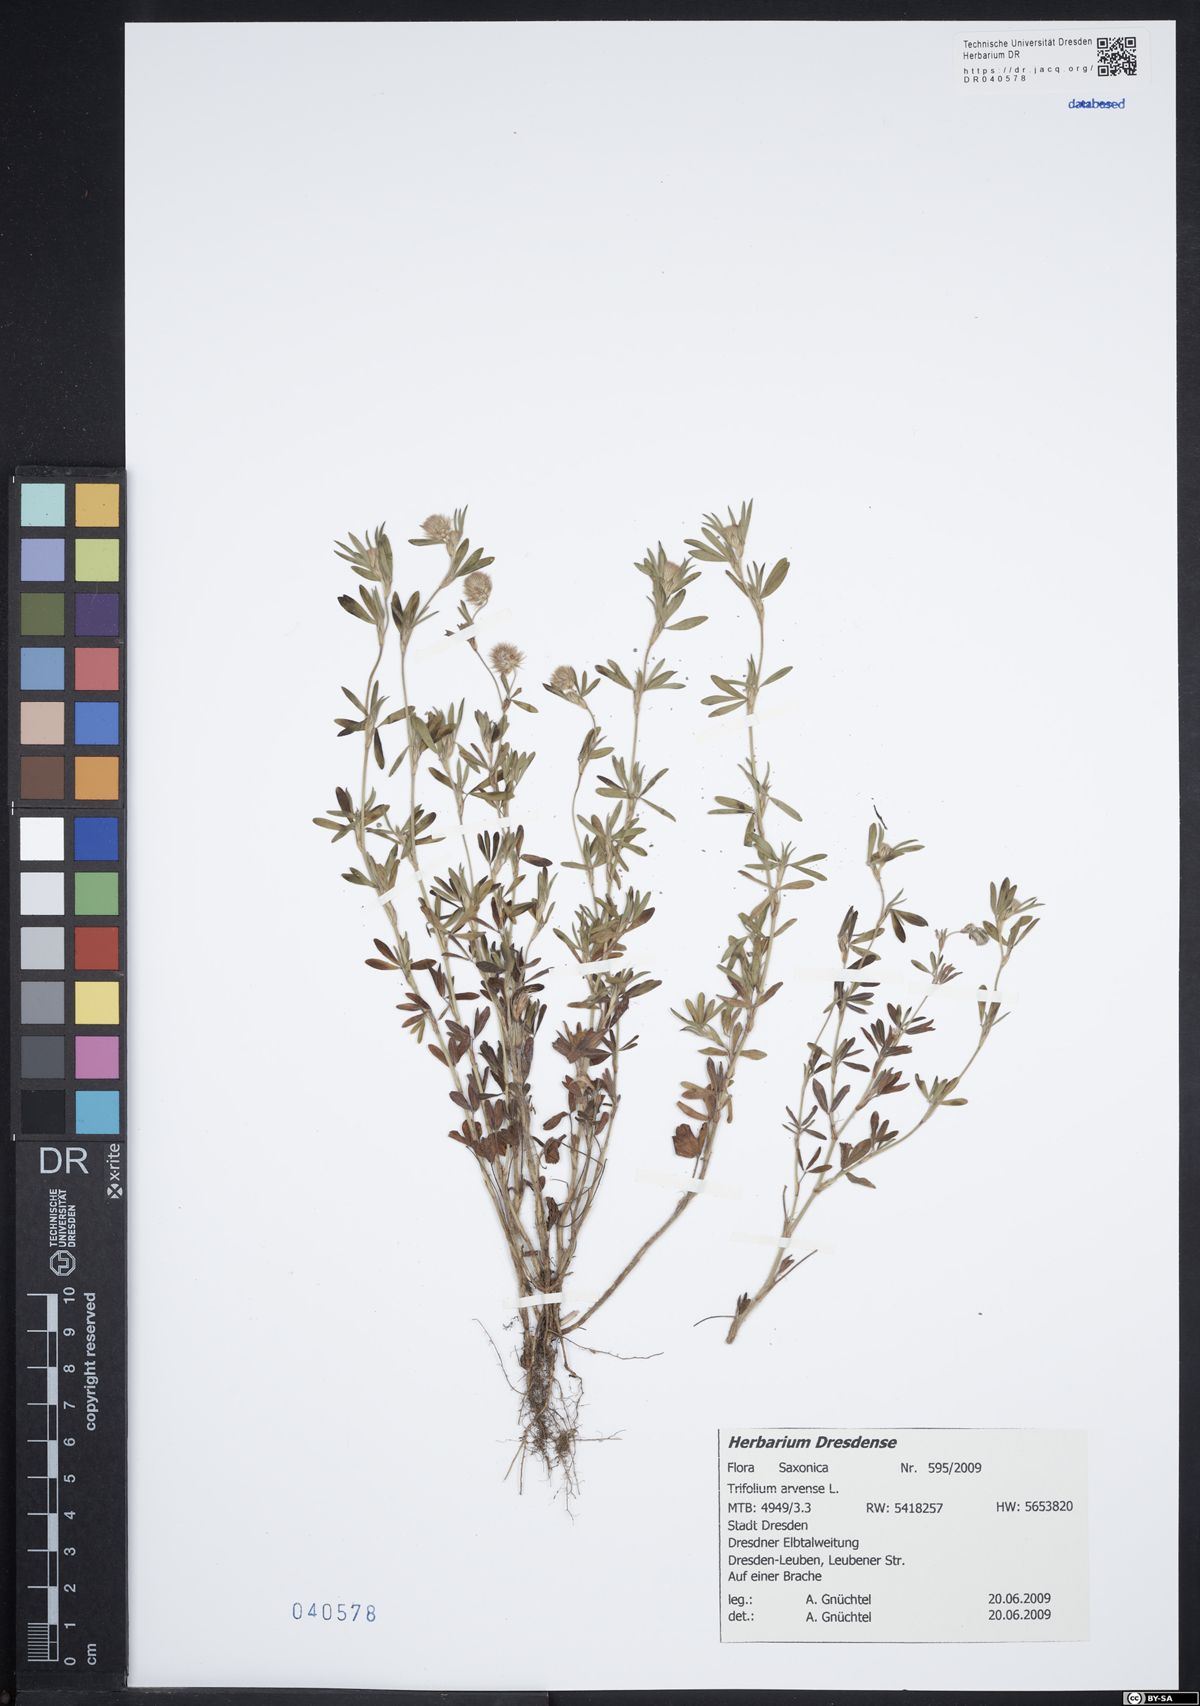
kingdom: Plantae
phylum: Tracheophyta
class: Magnoliopsida
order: Fabales
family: Fabaceae
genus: Trifolium
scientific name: Trifolium arvense
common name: Hare's-foot clover
